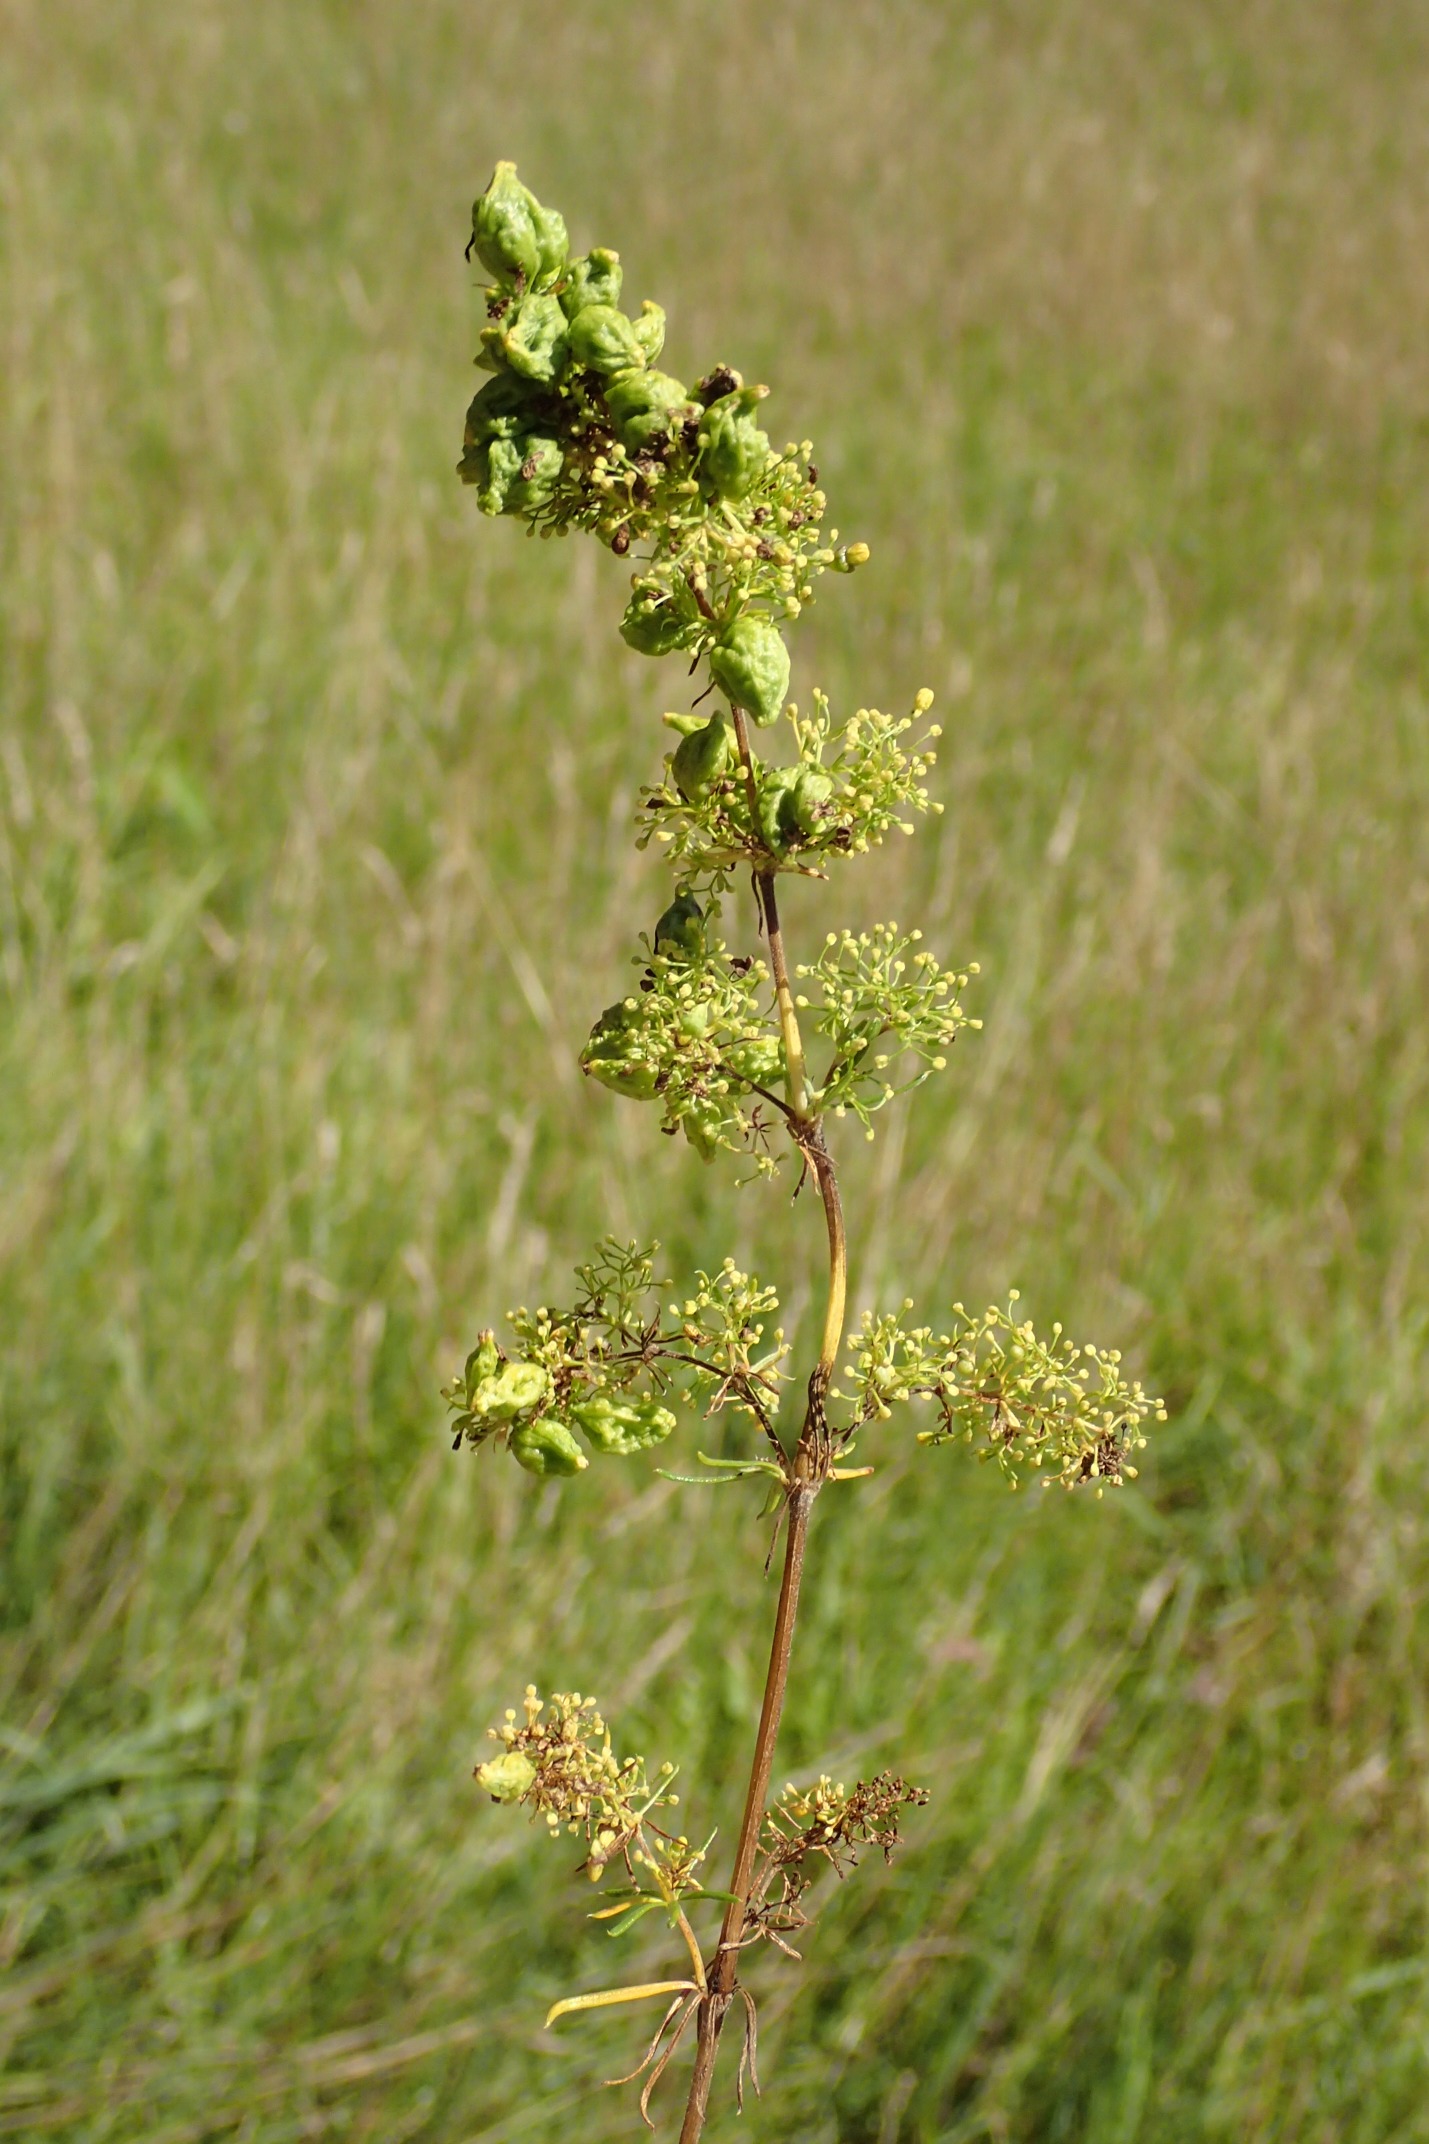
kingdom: Animalia
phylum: Arthropoda
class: Arachnida
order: Trombidiformes
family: Eriophyidae
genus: Aceria
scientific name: Aceria galiobia
